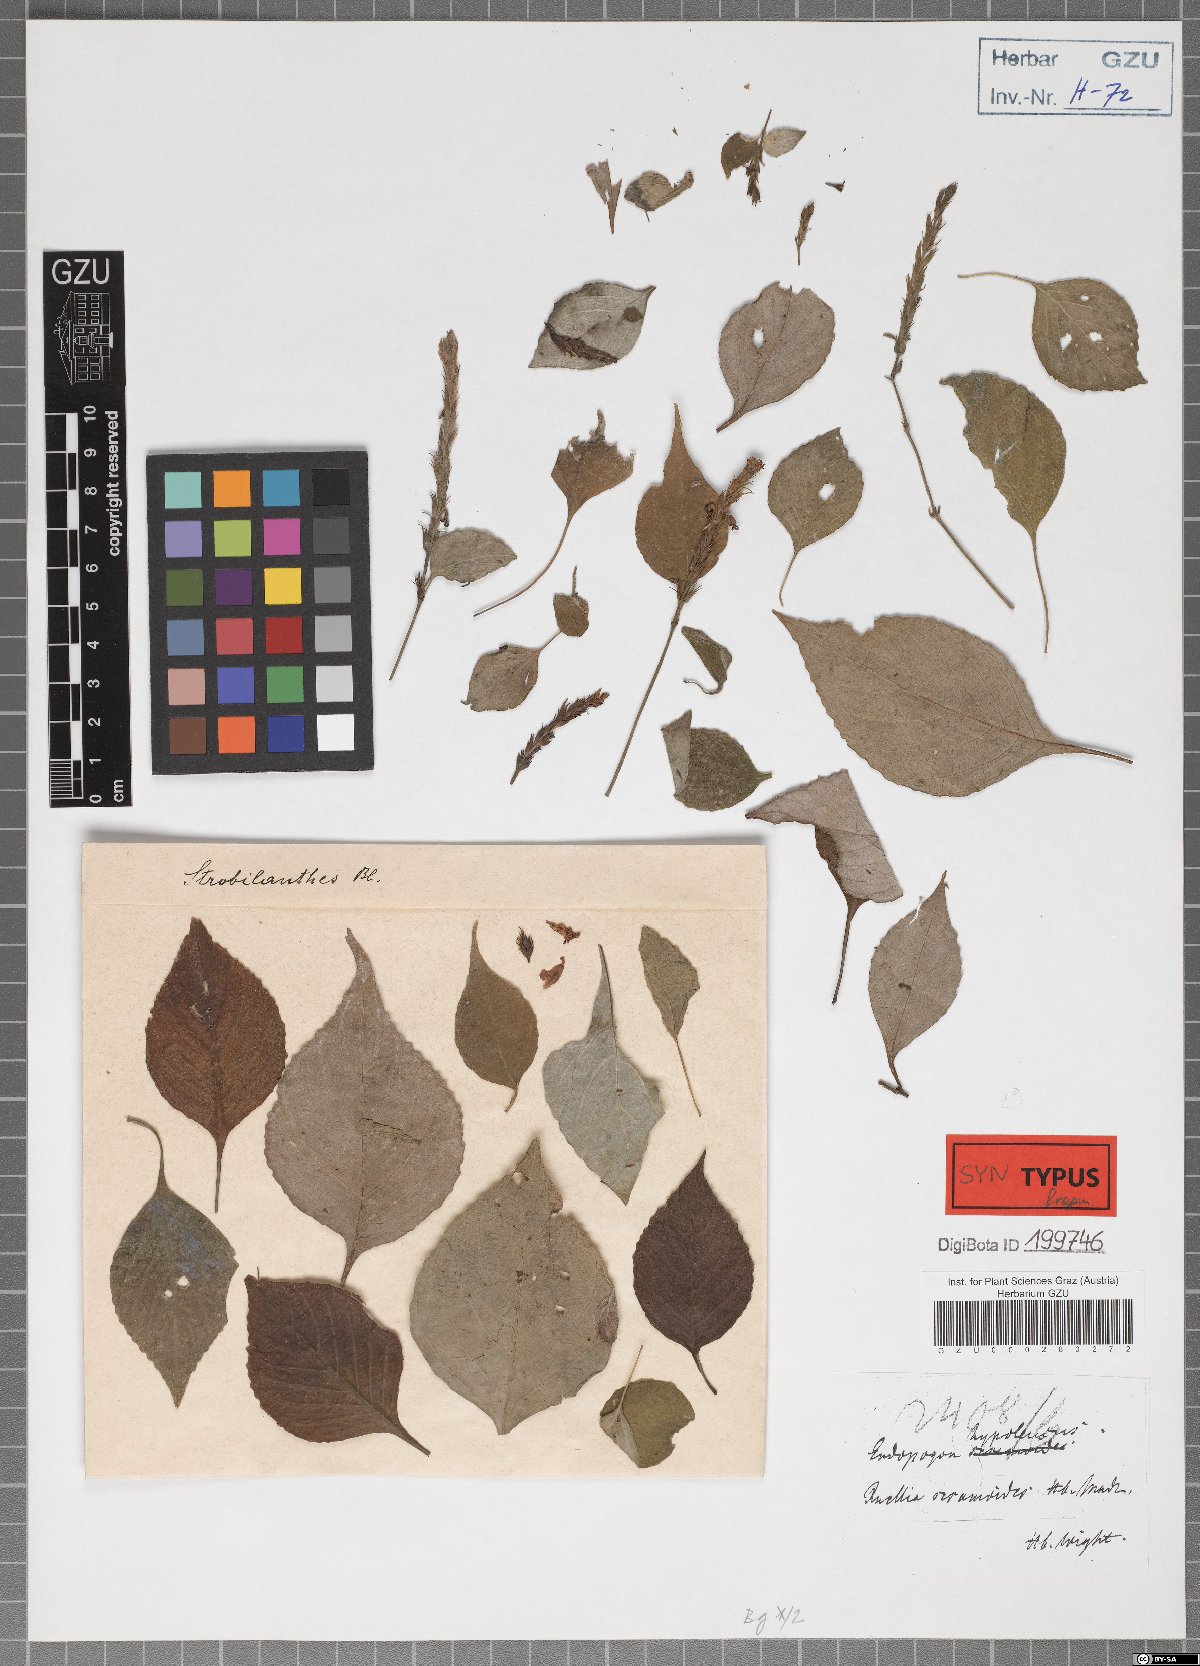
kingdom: Plantae
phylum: Tracheophyta
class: Magnoliopsida
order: Lamiales
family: Acanthaceae
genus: Strobilanthes
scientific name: Strobilanthes consanguinea
